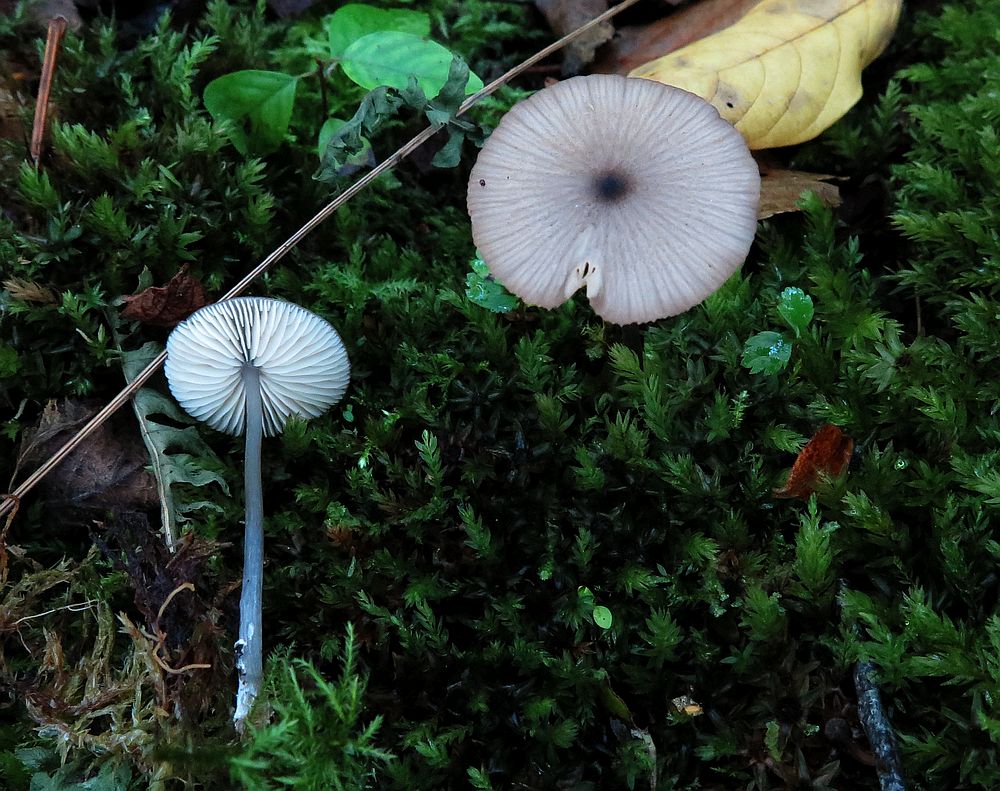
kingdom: Fungi
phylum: Basidiomycota
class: Agaricomycetes
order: Agaricales
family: Entolomataceae
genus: Entoloma
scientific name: Entoloma mutabilipes
